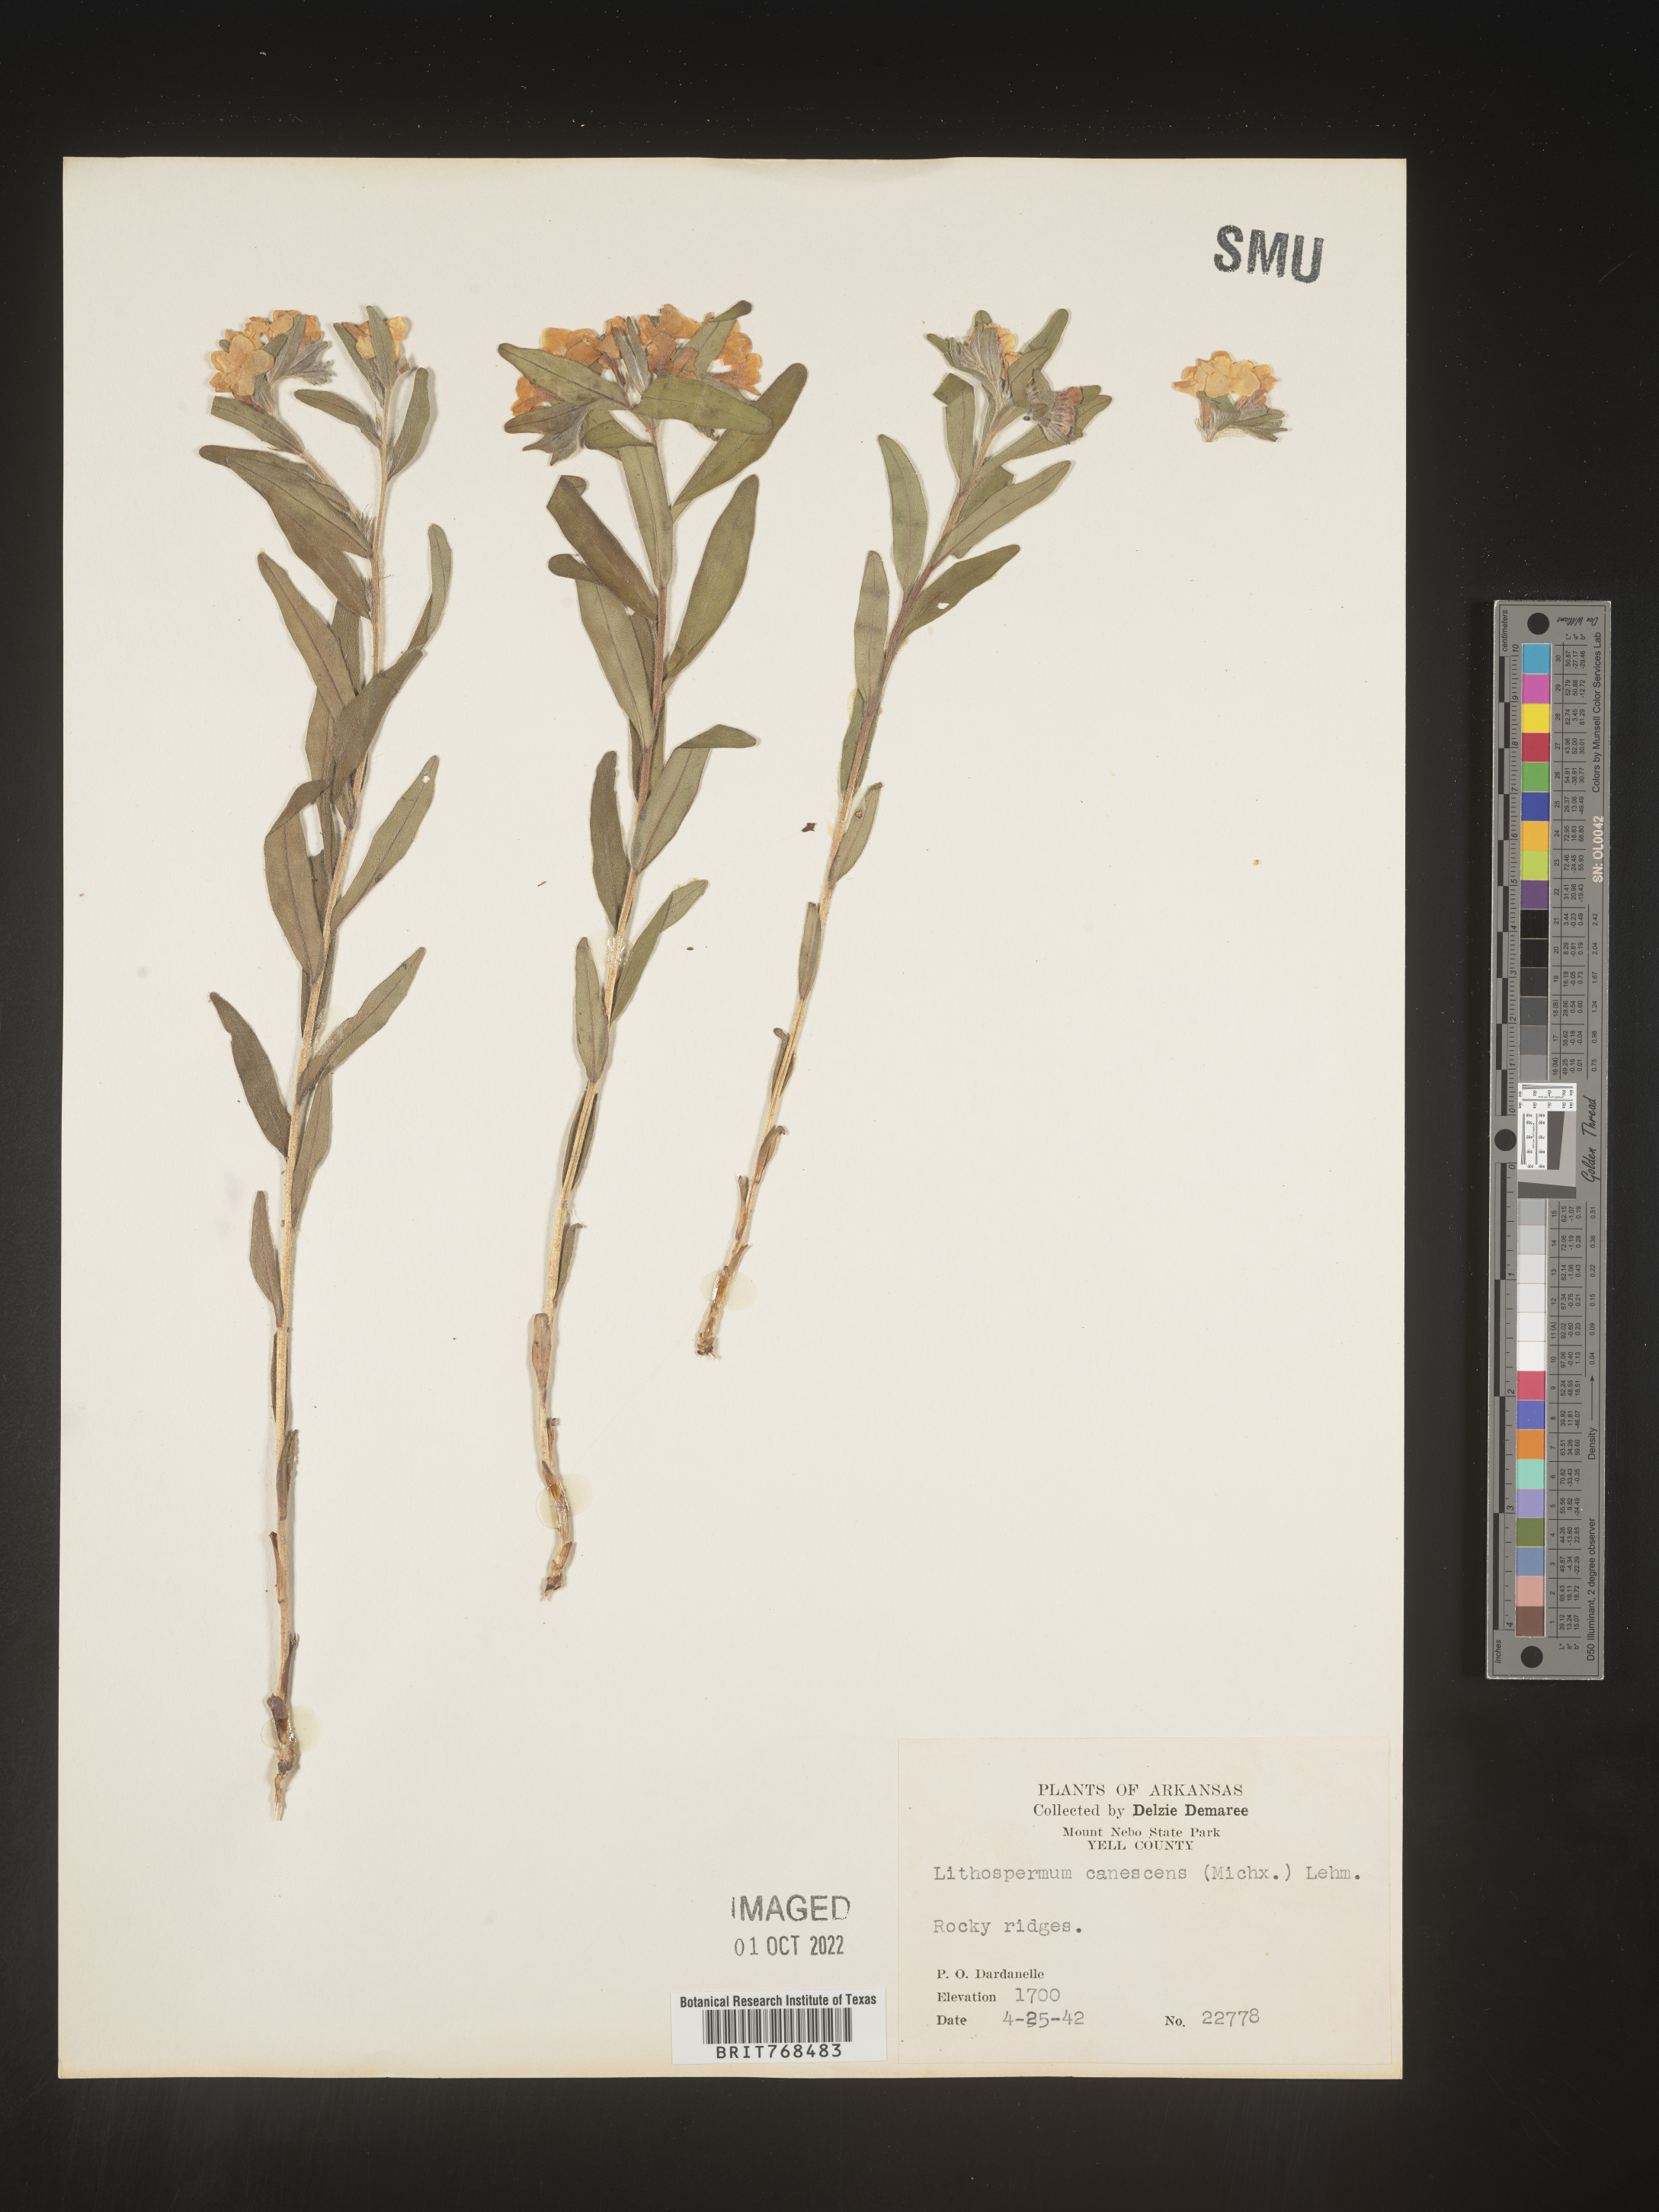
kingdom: Plantae
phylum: Tracheophyta
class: Magnoliopsida
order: Boraginales
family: Boraginaceae
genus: Lithospermum
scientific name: Lithospermum canescens
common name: Hoary puccoon
